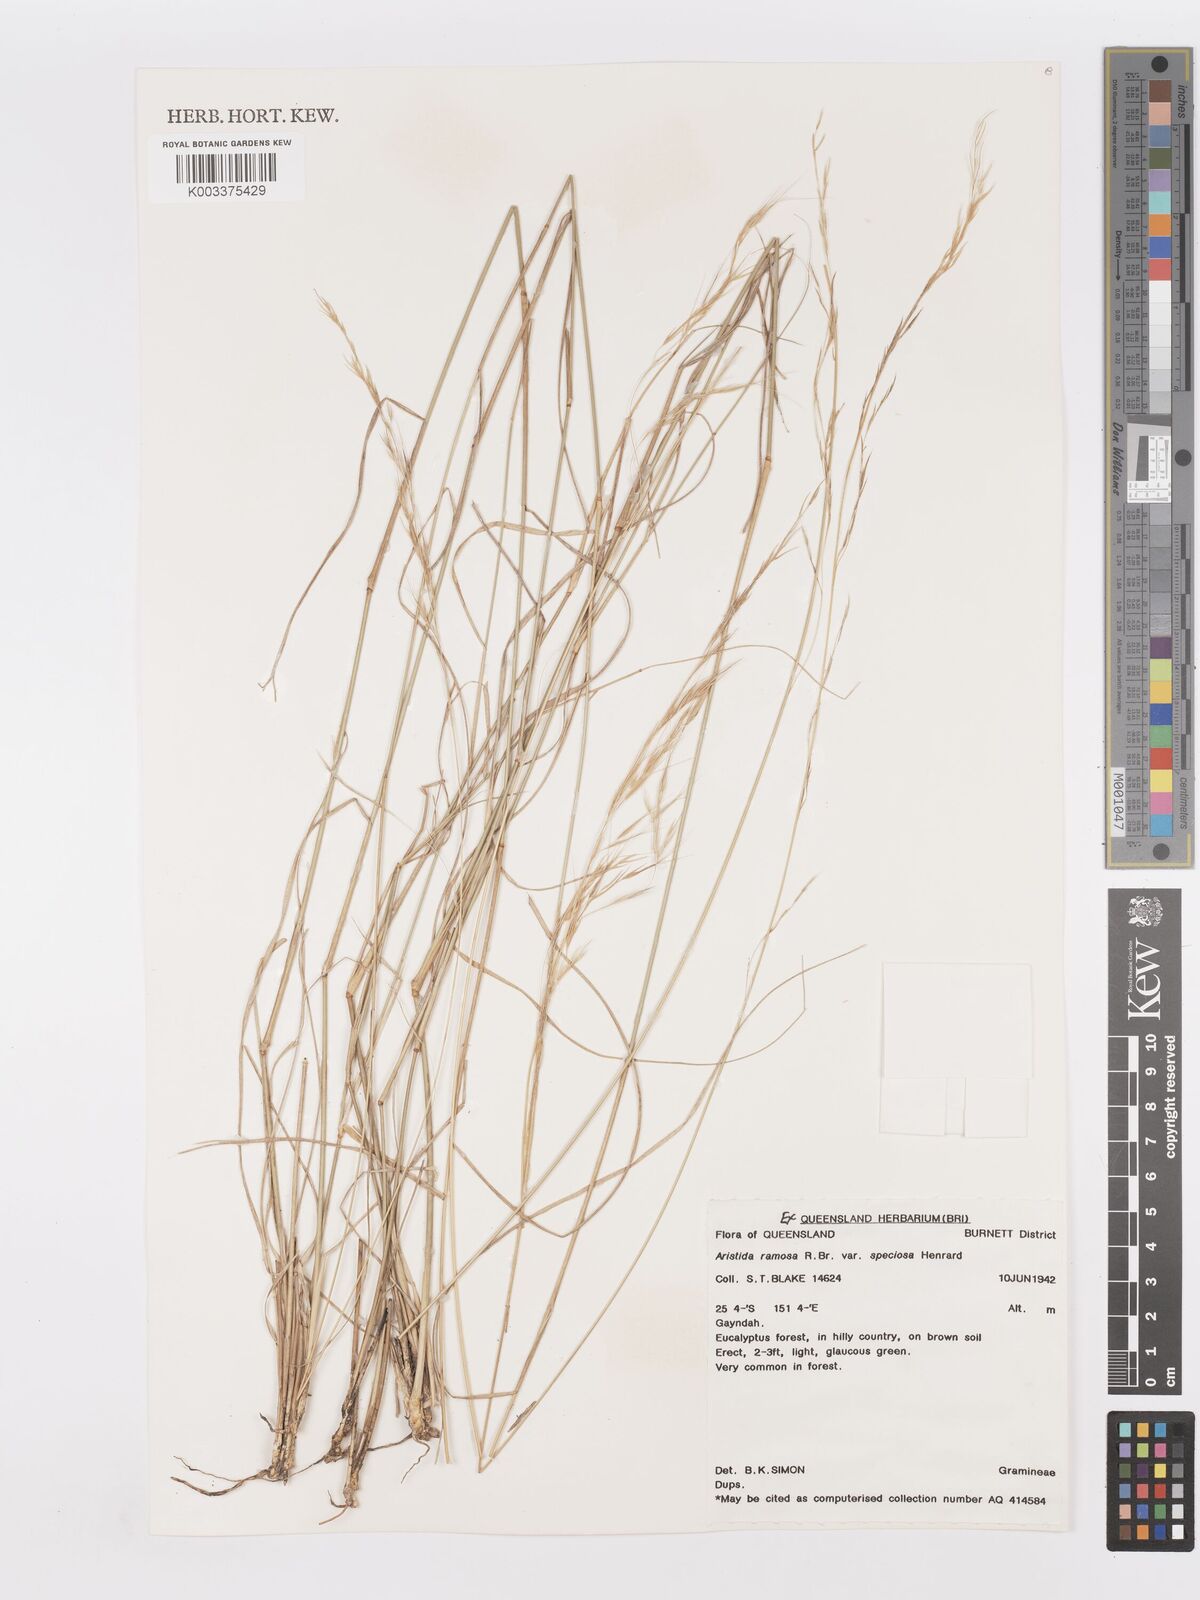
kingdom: Plantae
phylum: Tracheophyta
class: Liliopsida
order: Poales
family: Poaceae
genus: Aristida
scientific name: Aristida ramosa
